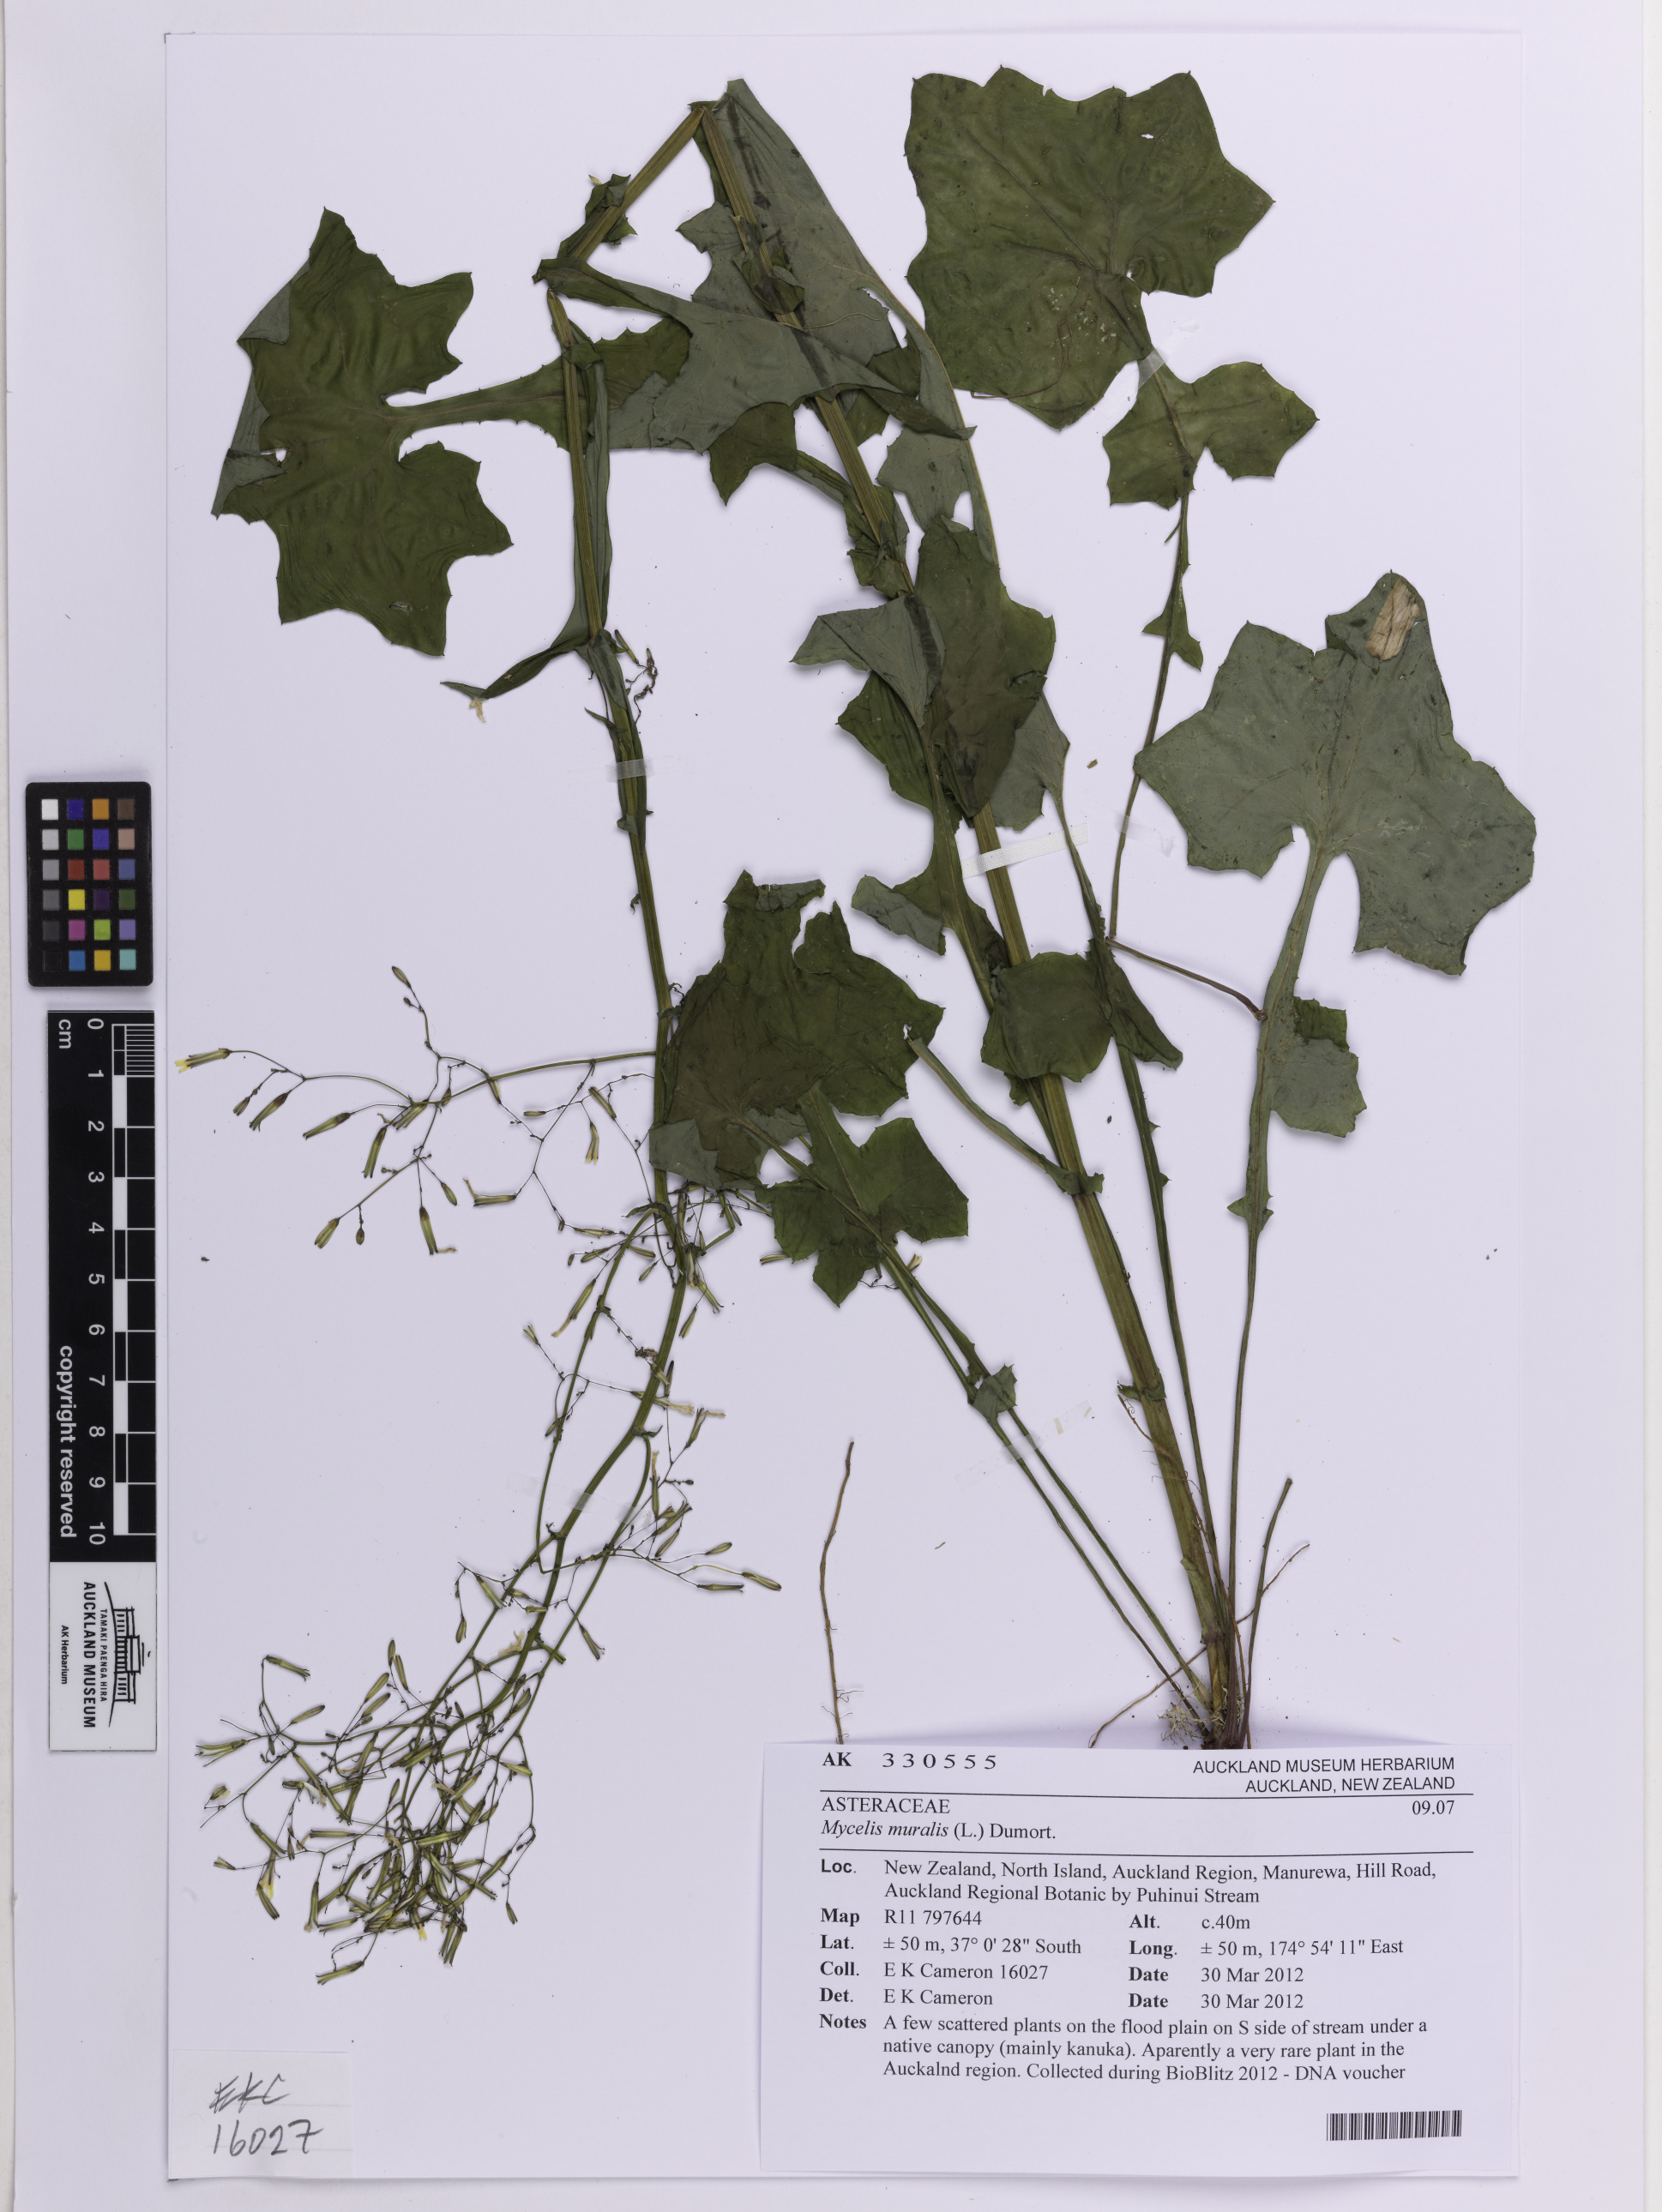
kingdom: Plantae
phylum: Tracheophyta
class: Magnoliopsida
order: Asterales
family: Asteraceae
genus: Mycelis
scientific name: Mycelis muralis
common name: Wall lettuce
